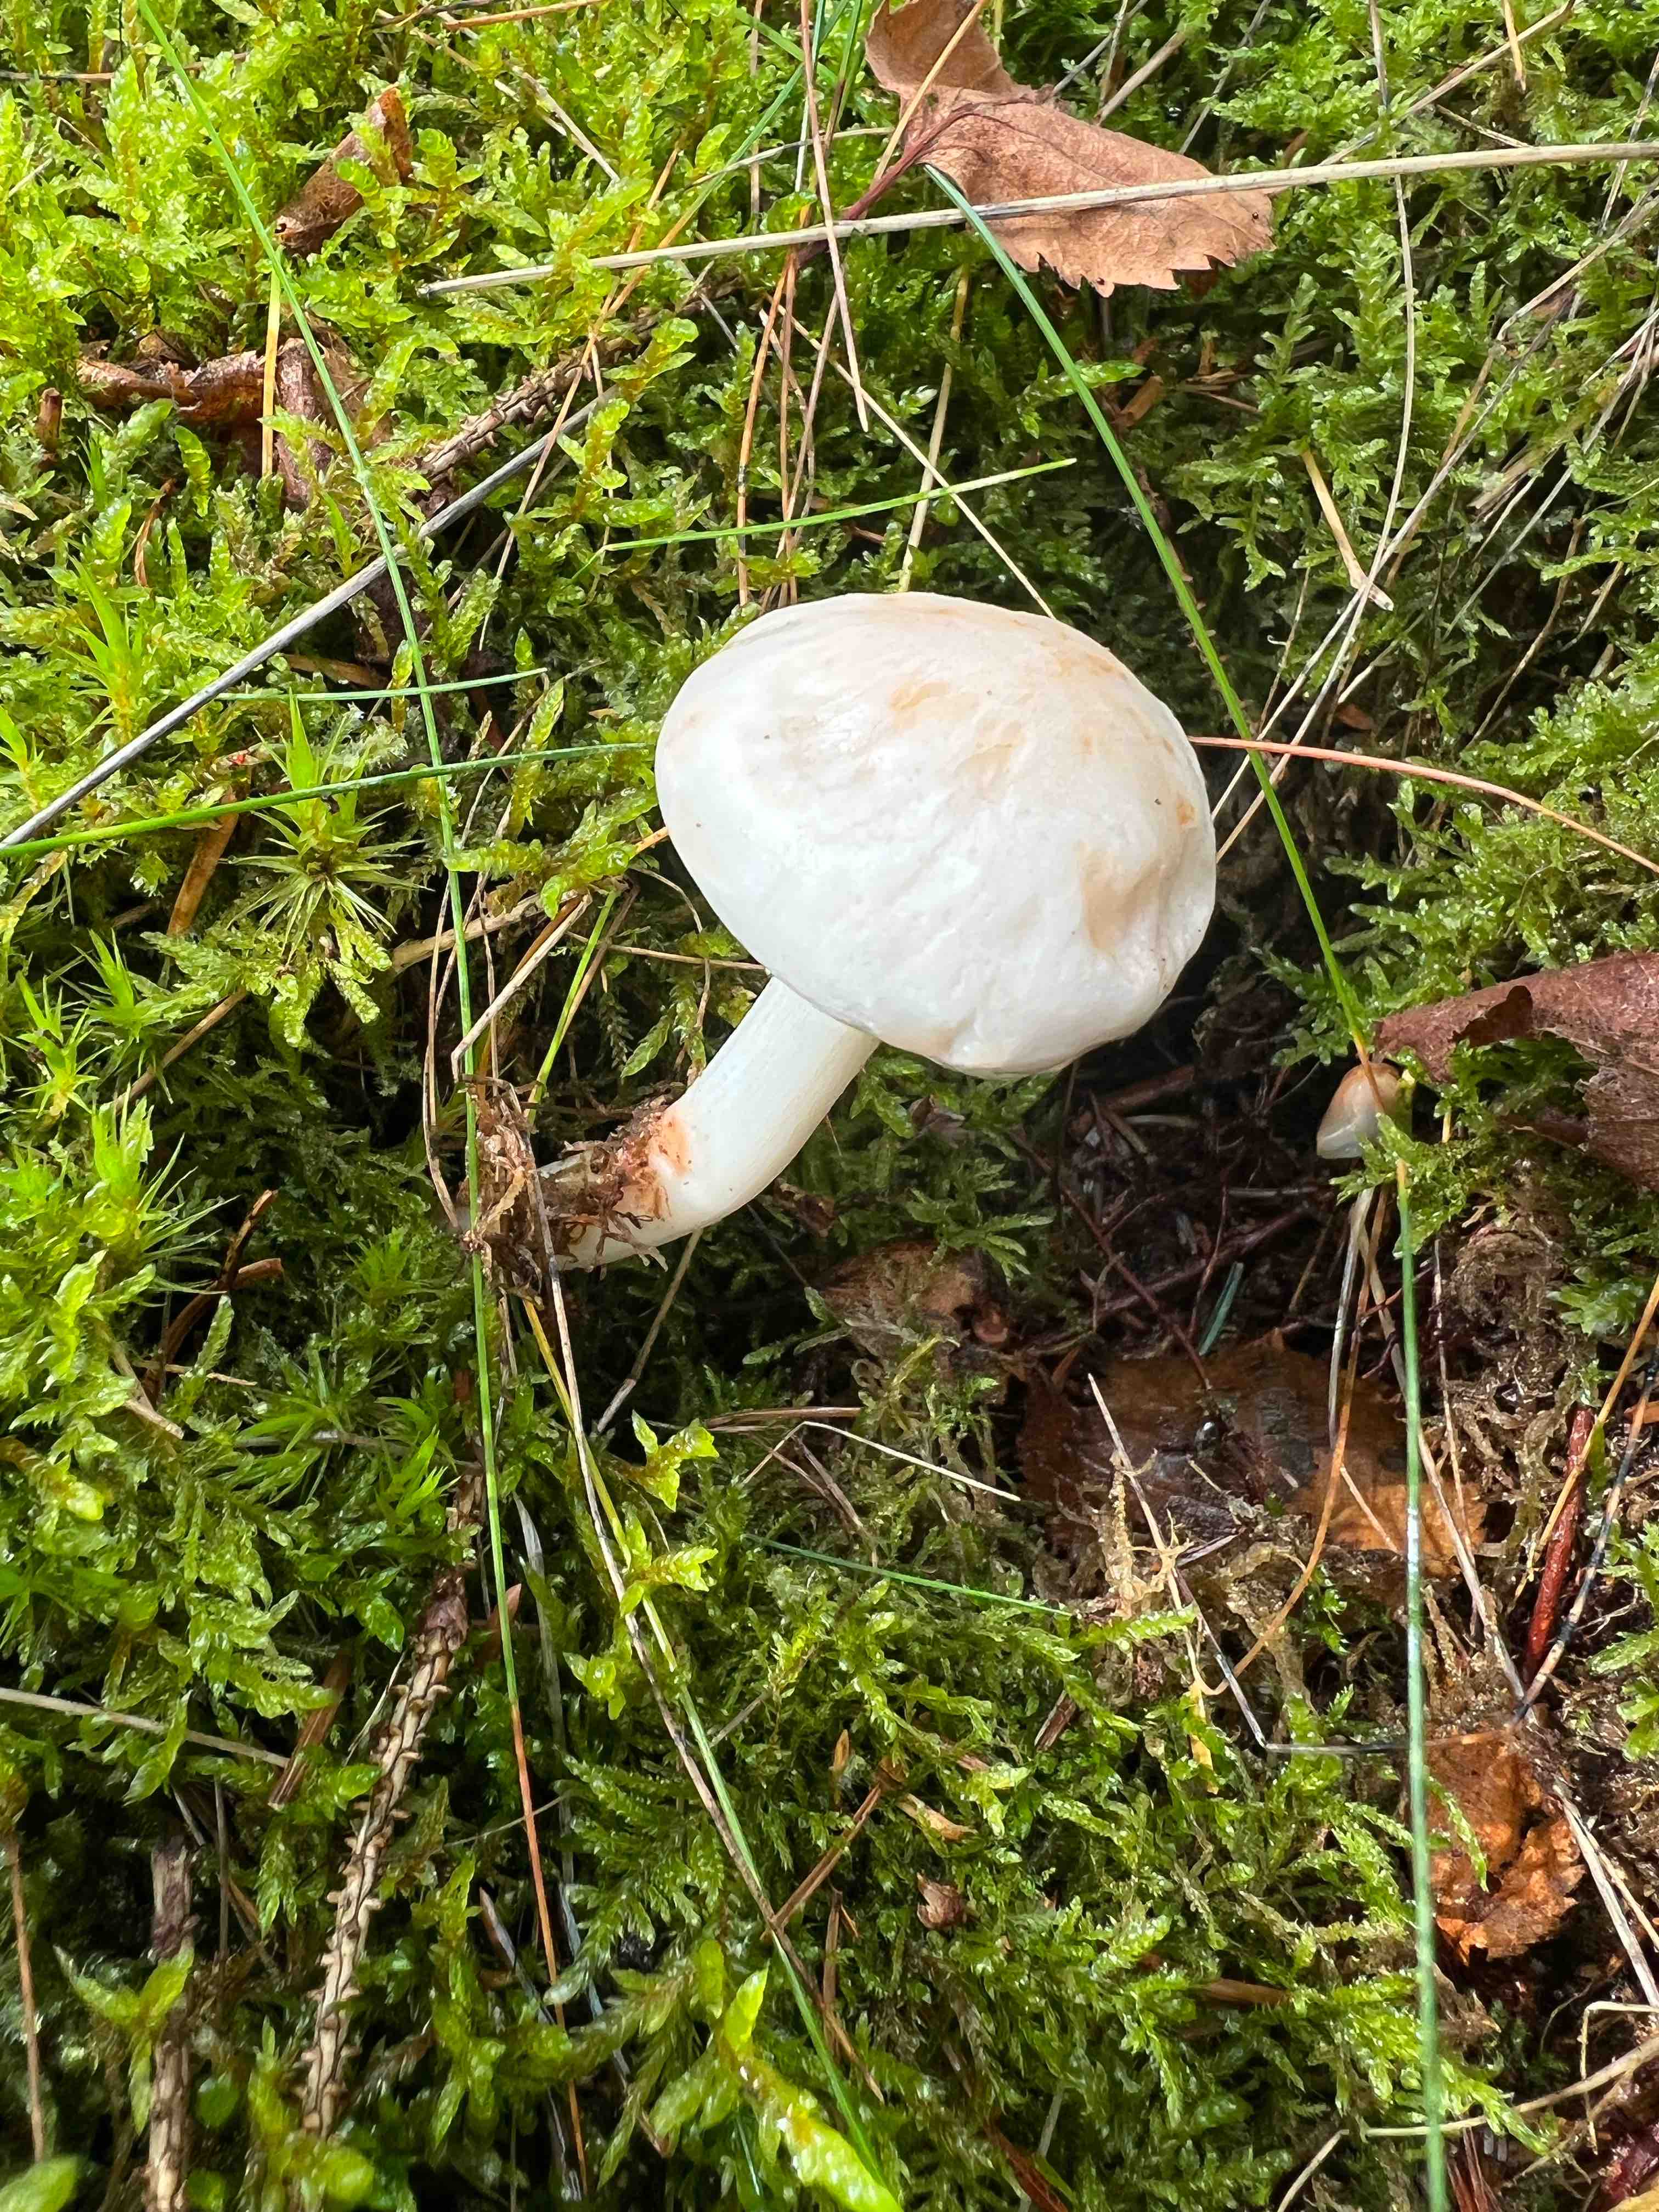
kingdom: Fungi
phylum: Basidiomycota
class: Agaricomycetes
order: Agaricales
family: Omphalotaceae
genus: Rhodocollybia
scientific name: Rhodocollybia maculata
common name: plettet fladhat
